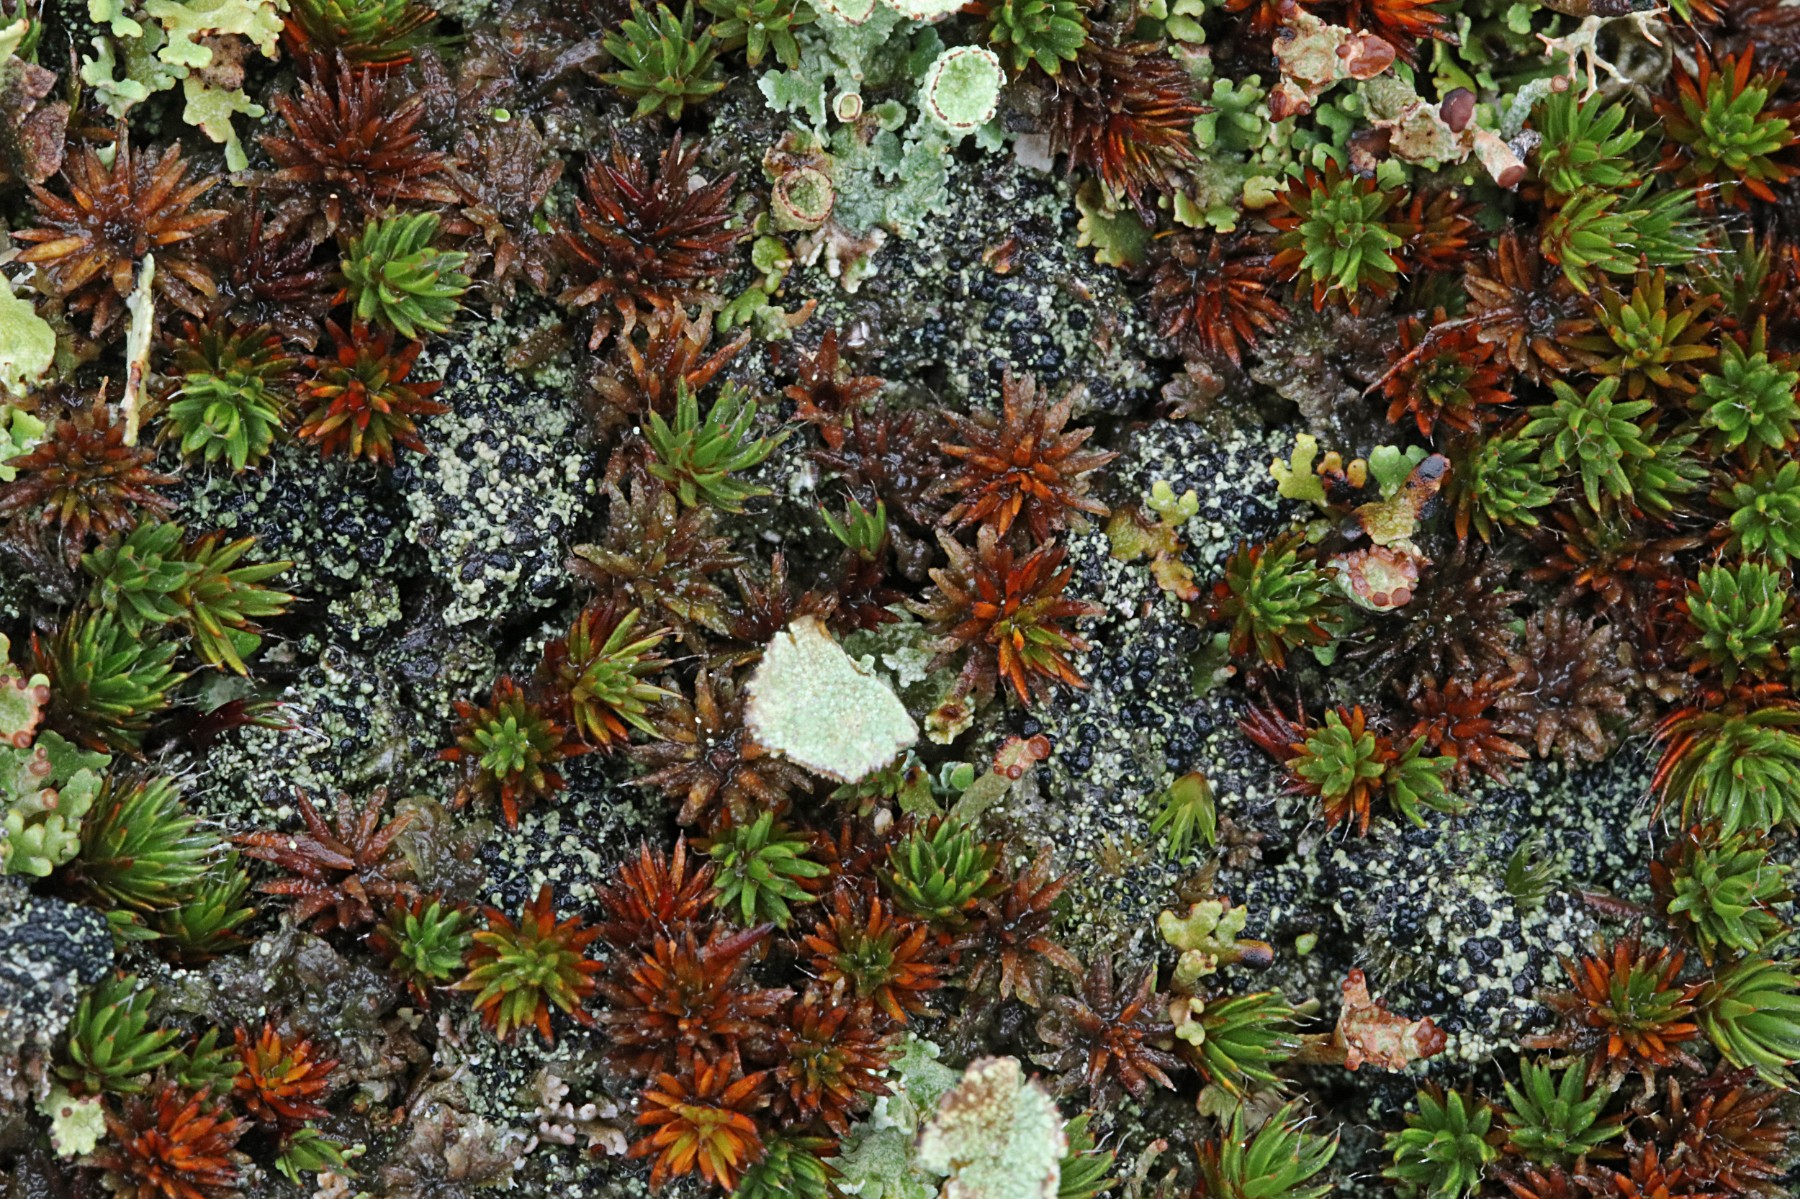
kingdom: Fungi
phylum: Ascomycota
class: Lecanoromycetes
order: Lecanorales
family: Byssolomataceae
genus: Micarea
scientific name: Micarea lignaria
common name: tørve-knaplav
